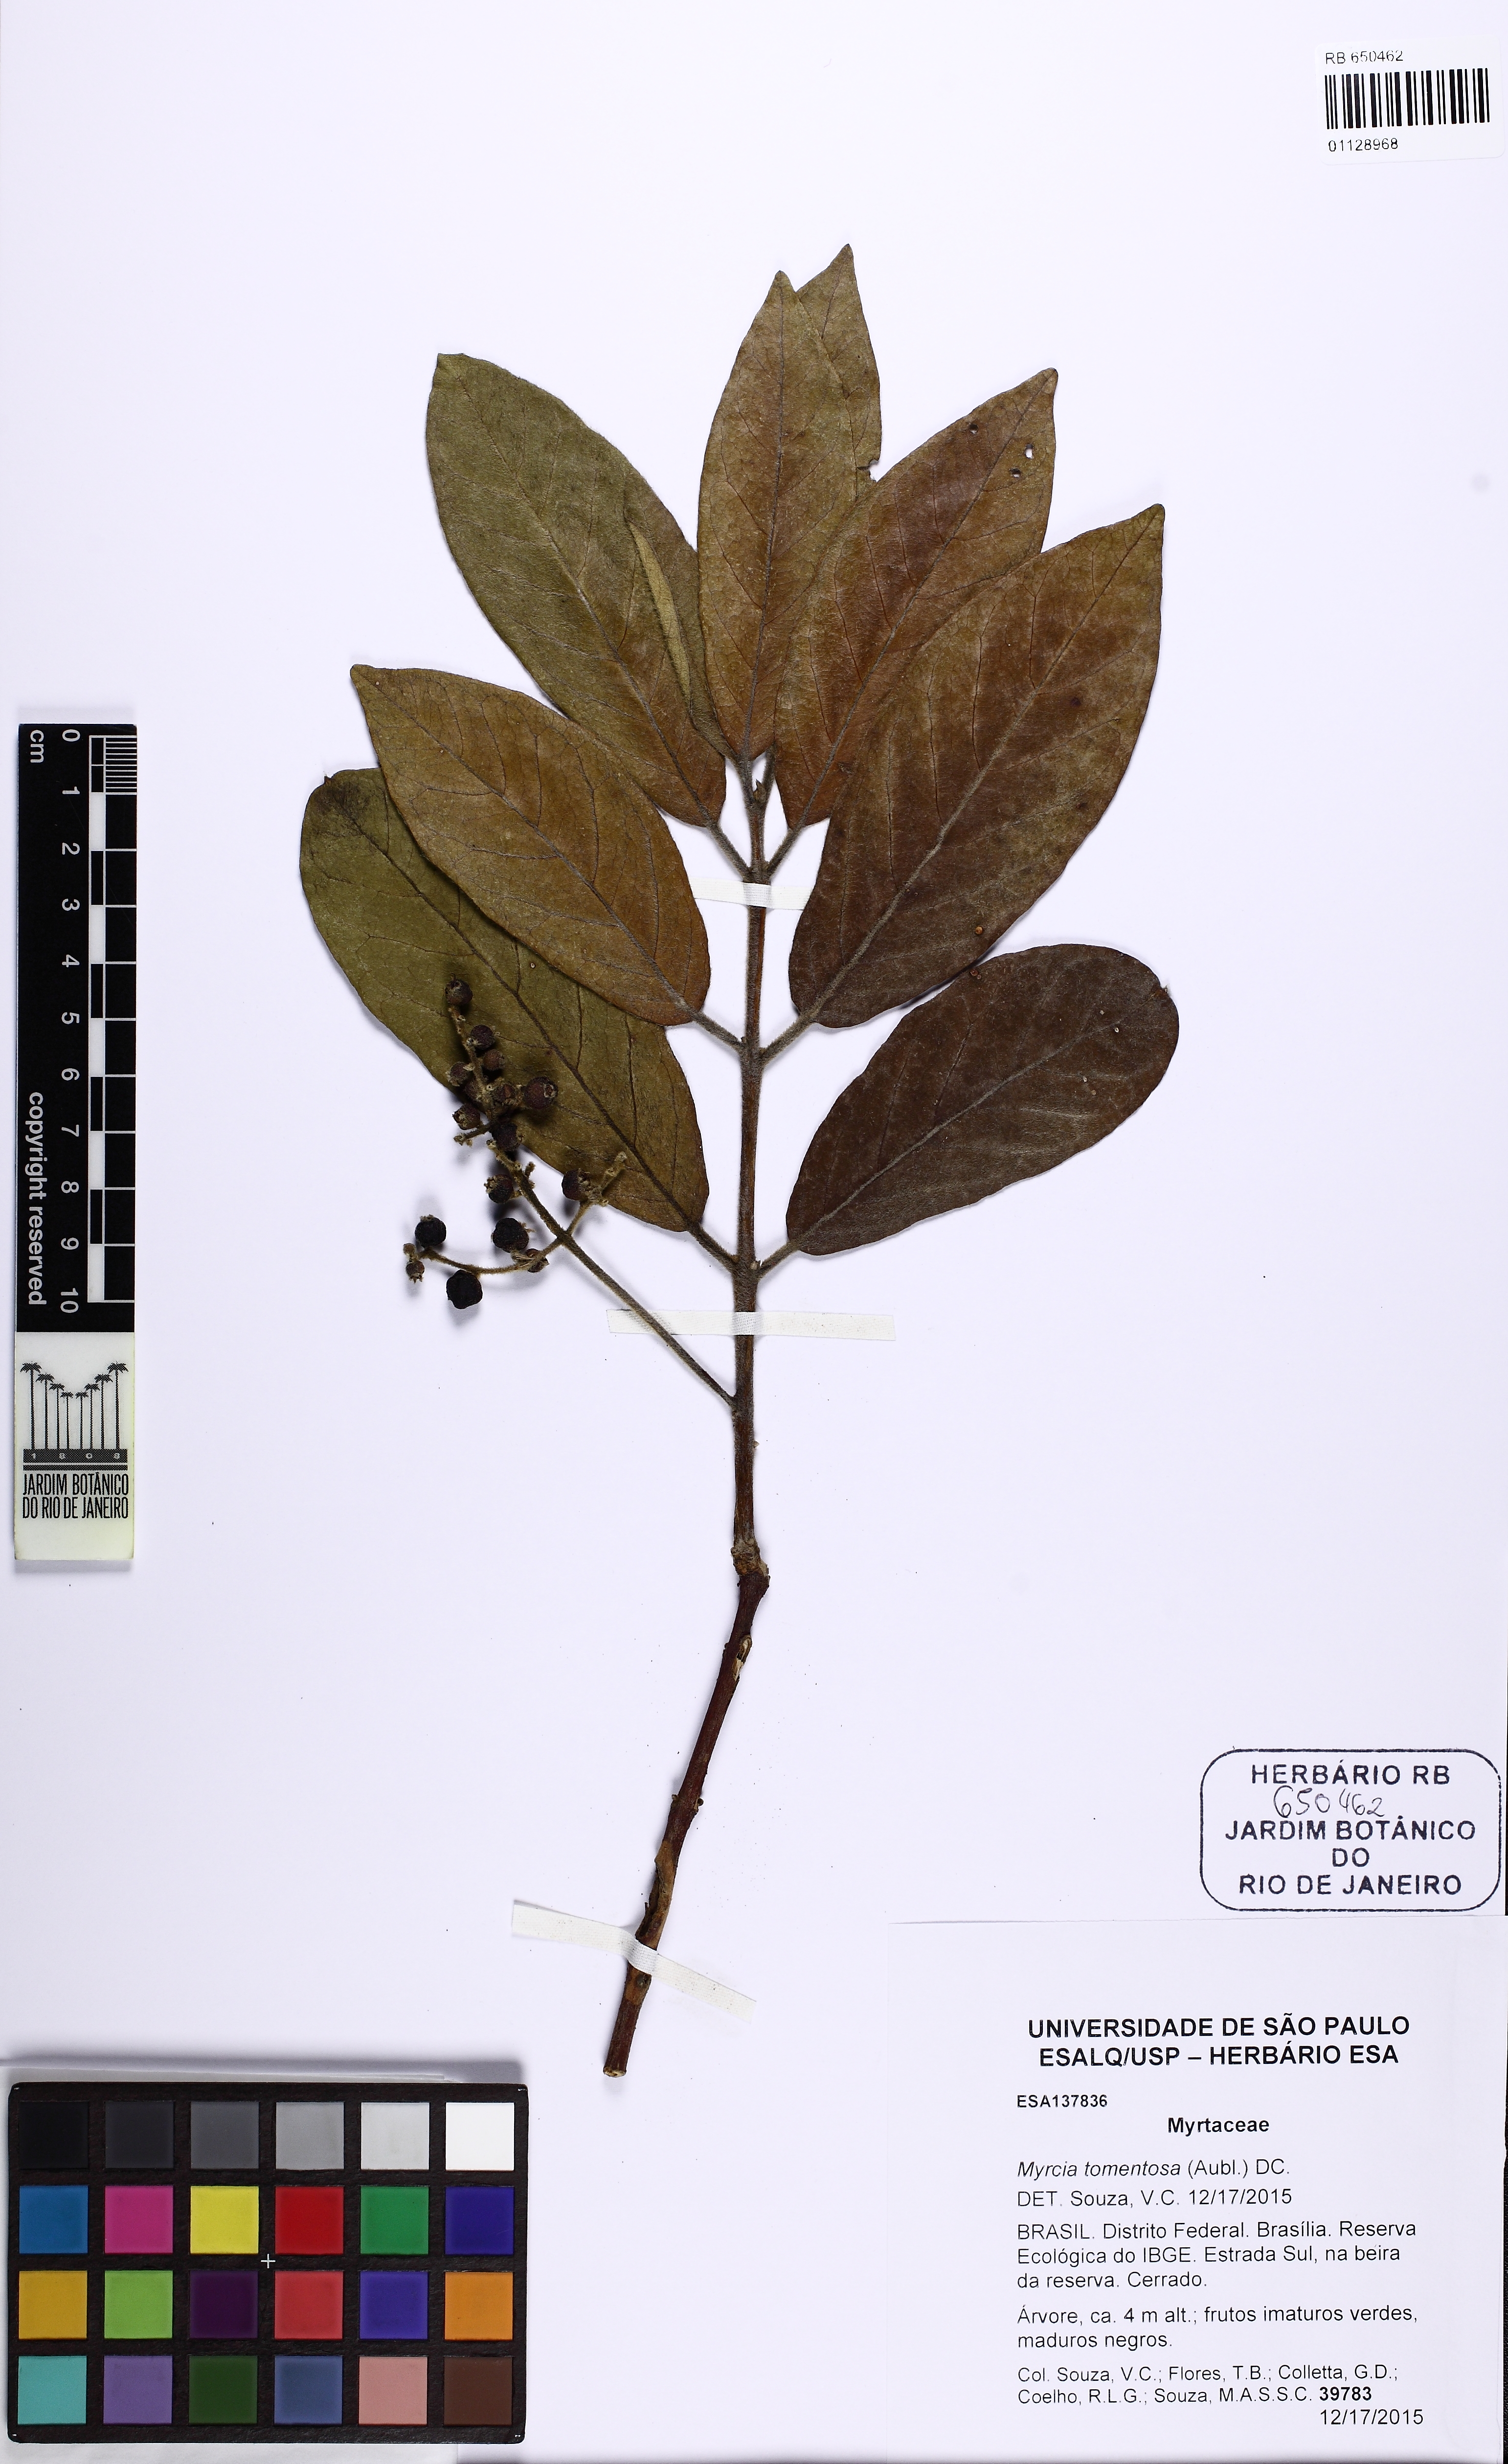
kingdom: Plantae
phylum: Tracheophyta
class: Magnoliopsida
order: Myrtales
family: Myrtaceae
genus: Myrcia
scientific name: Myrcia tomentosa
